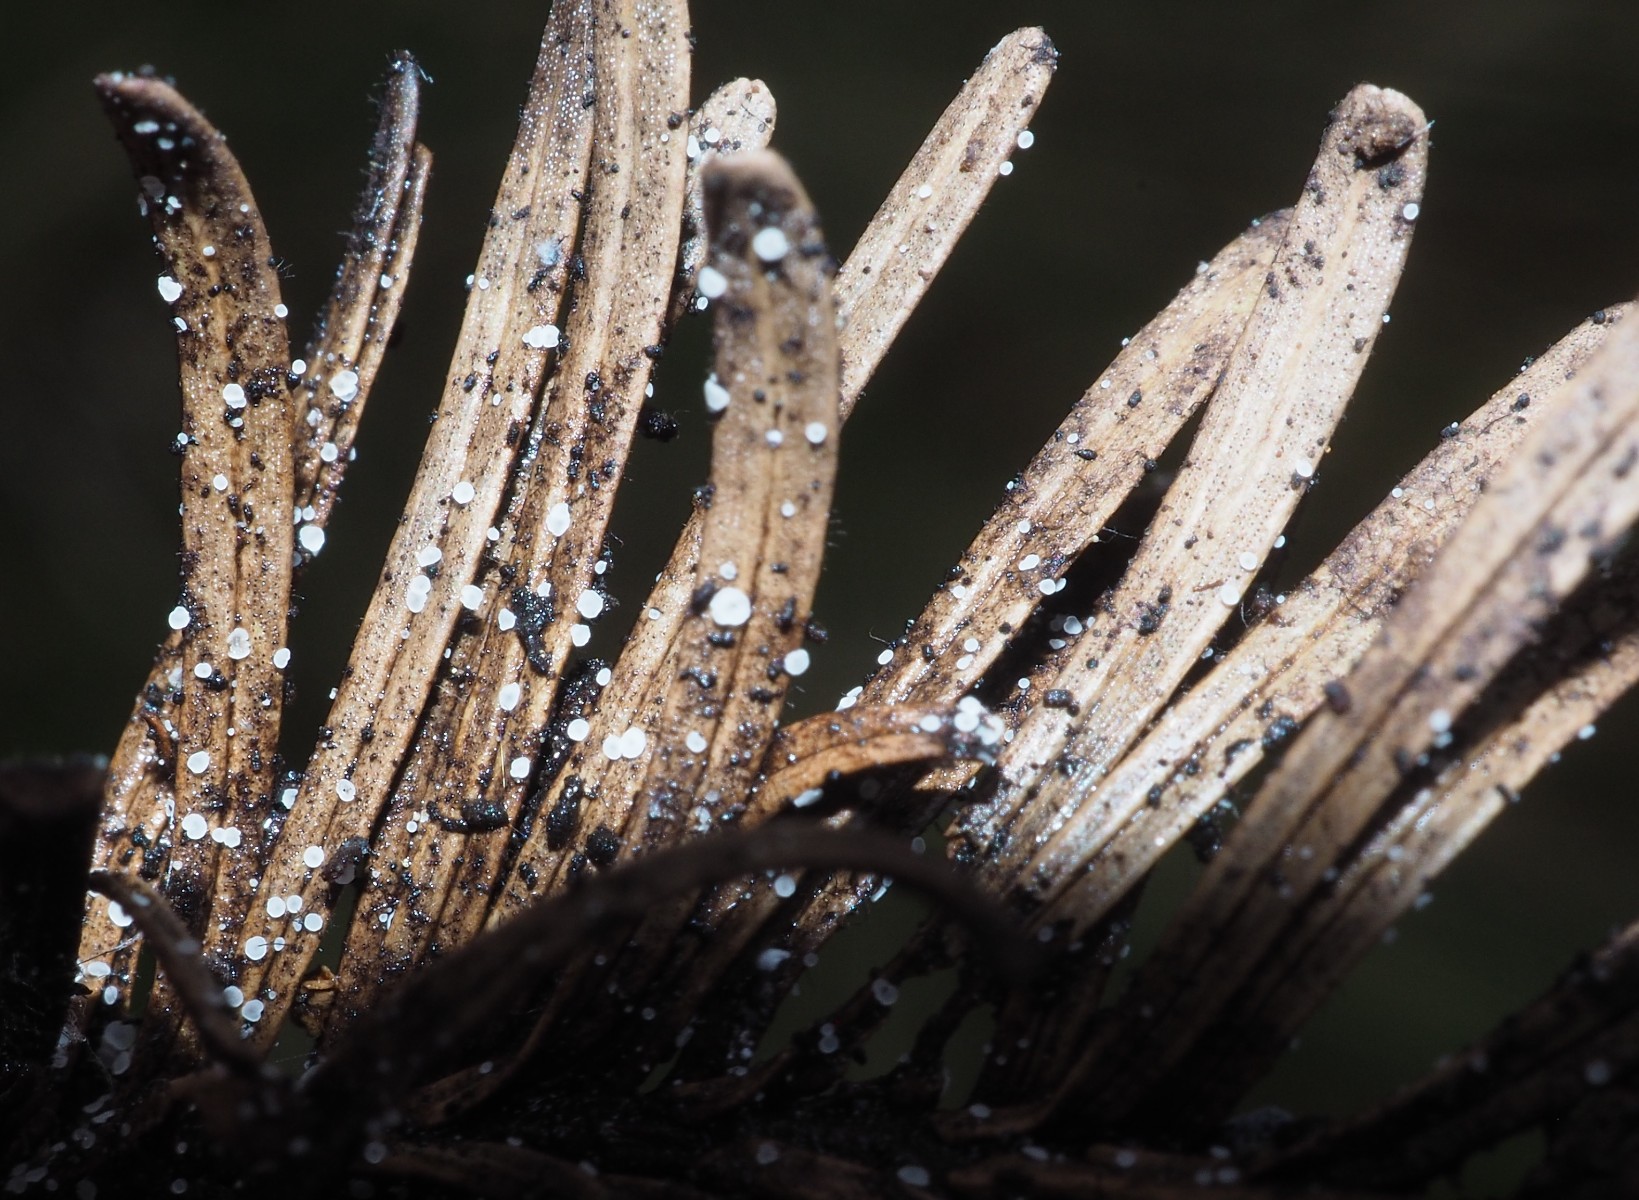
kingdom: Fungi
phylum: Ascomycota
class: Leotiomycetes
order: Helotiales
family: Hyaloscyphaceae
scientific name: Hyaloscyphaceae
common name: frynseskivefamilien
